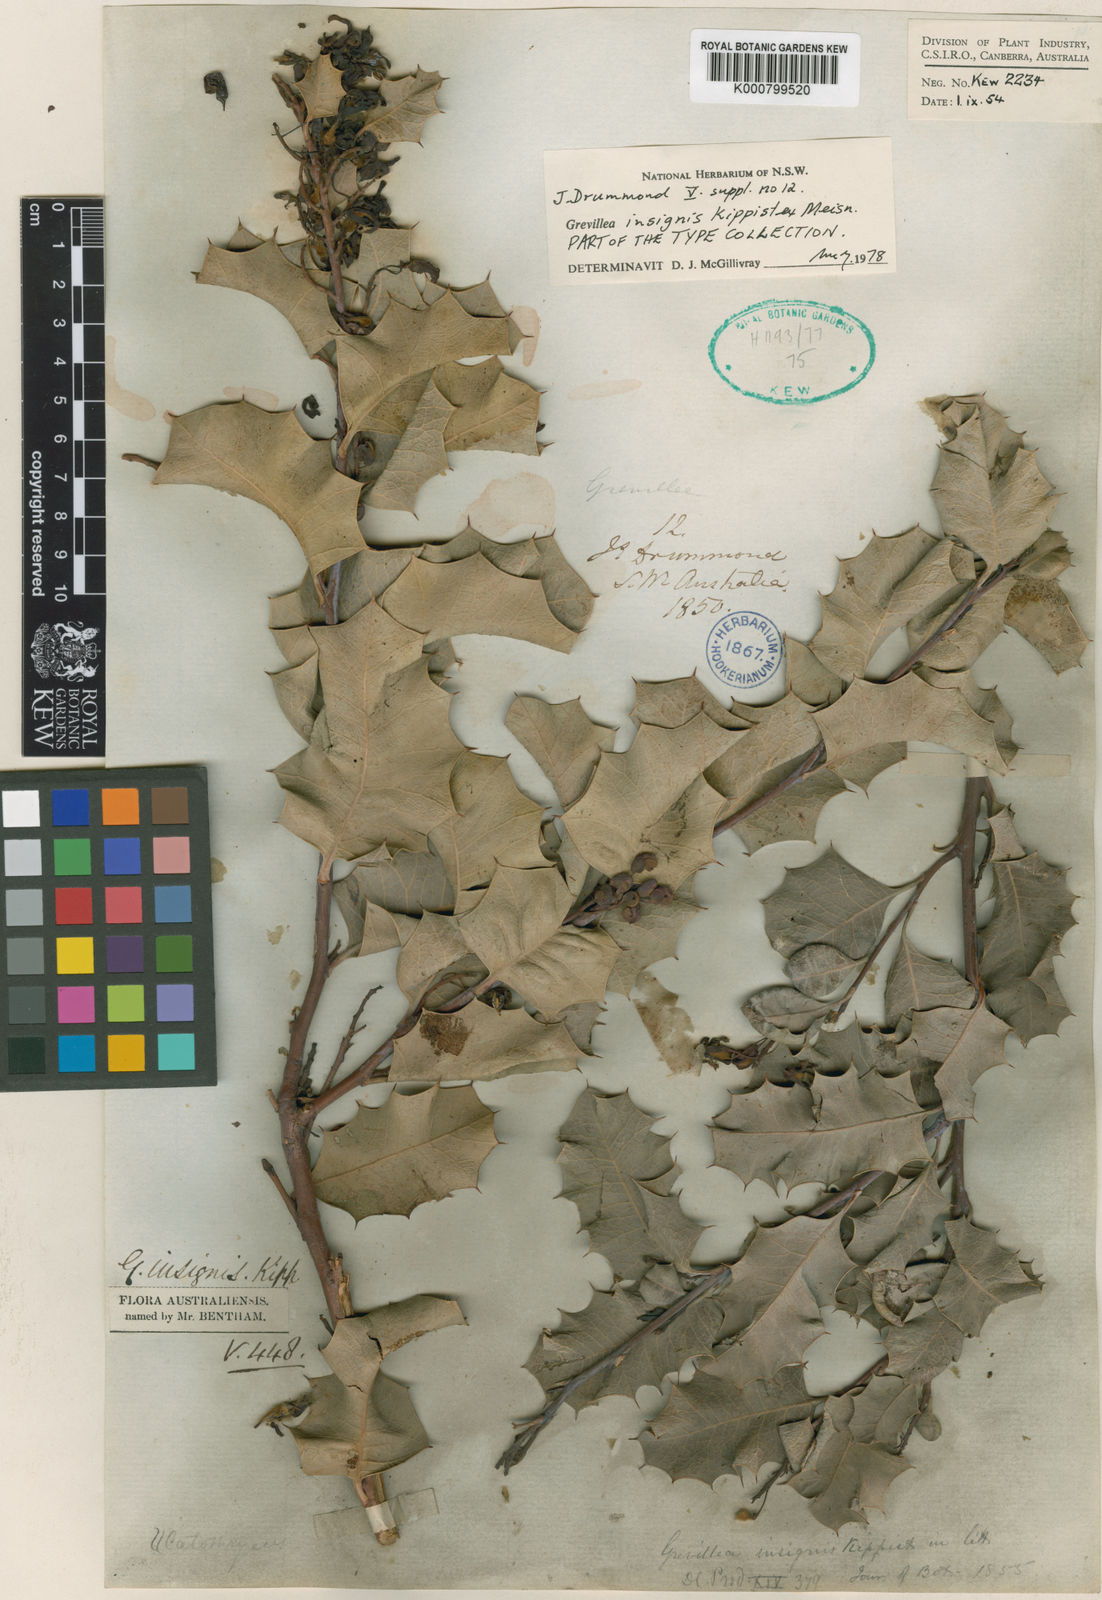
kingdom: Plantae
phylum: Tracheophyta
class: Magnoliopsida
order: Proteales
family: Proteaceae
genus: Grevillea
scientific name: Grevillea insignis
